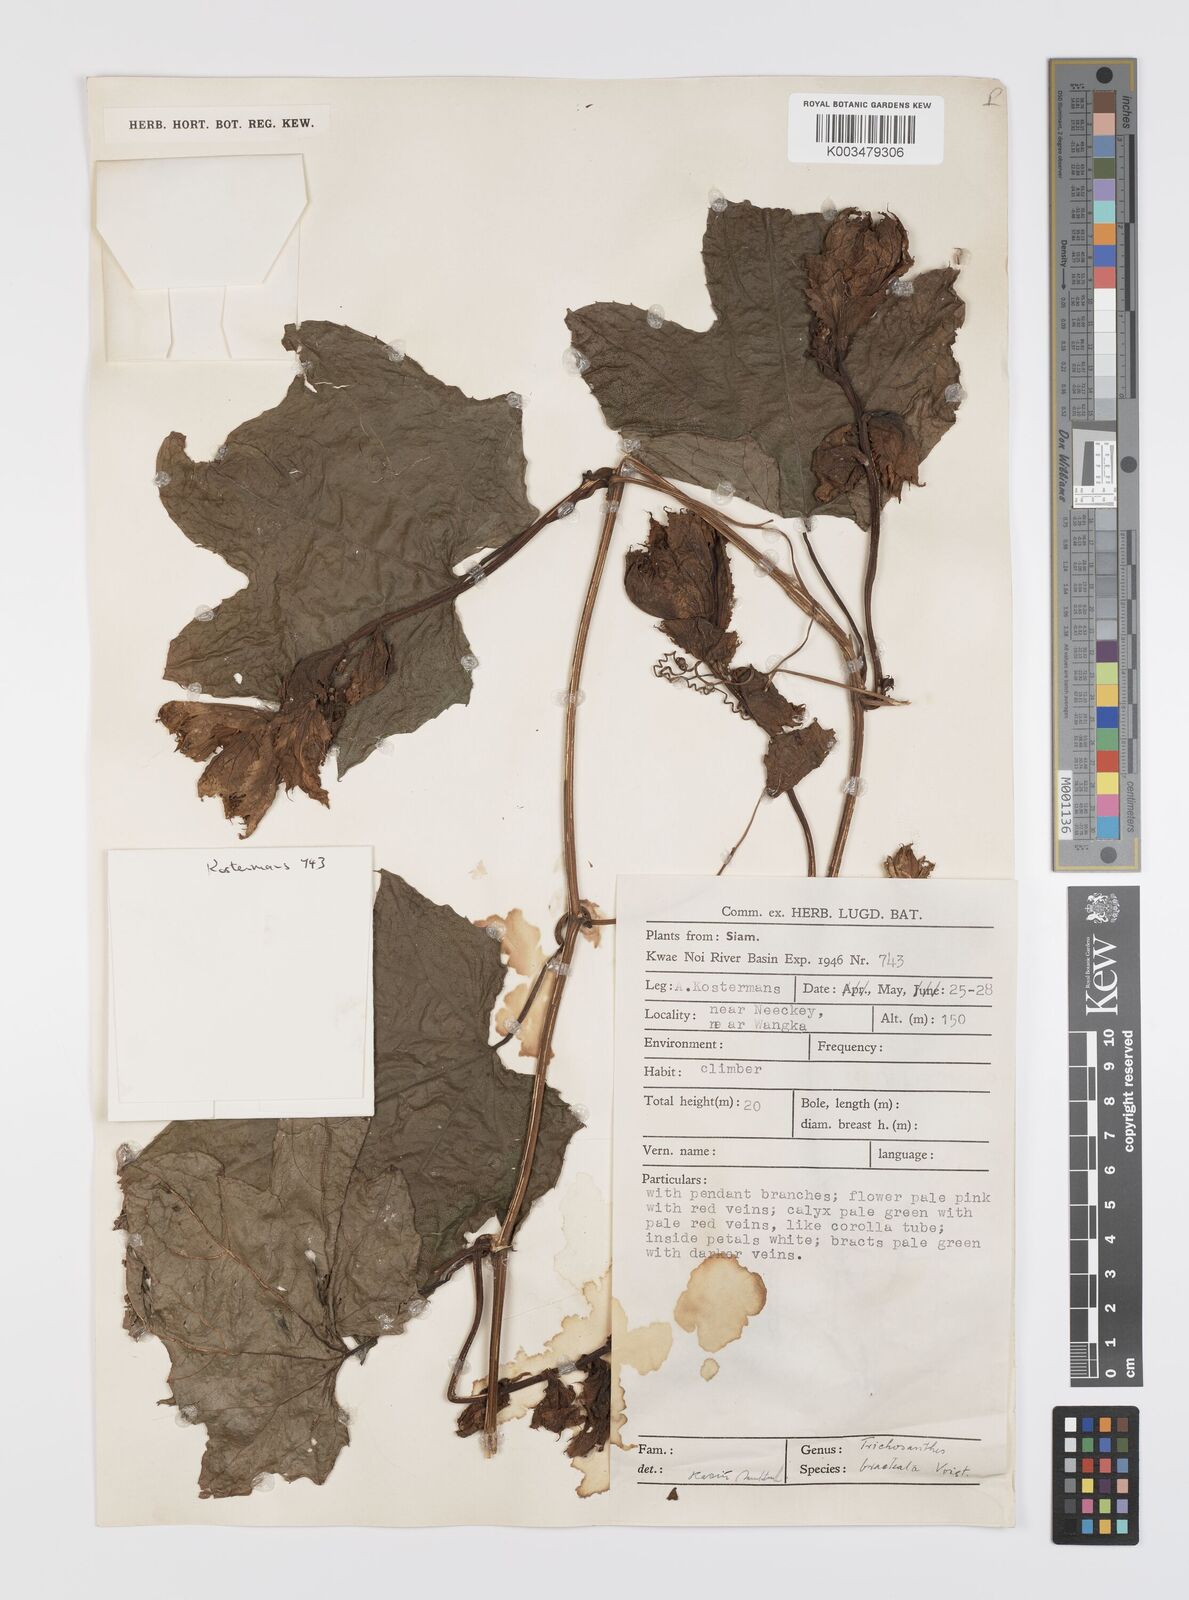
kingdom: Plantae
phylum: Tracheophyta
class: Magnoliopsida
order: Cucurbitales
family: Cucurbitaceae
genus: Trichosanthes
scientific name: Trichosanthes rubriflos
